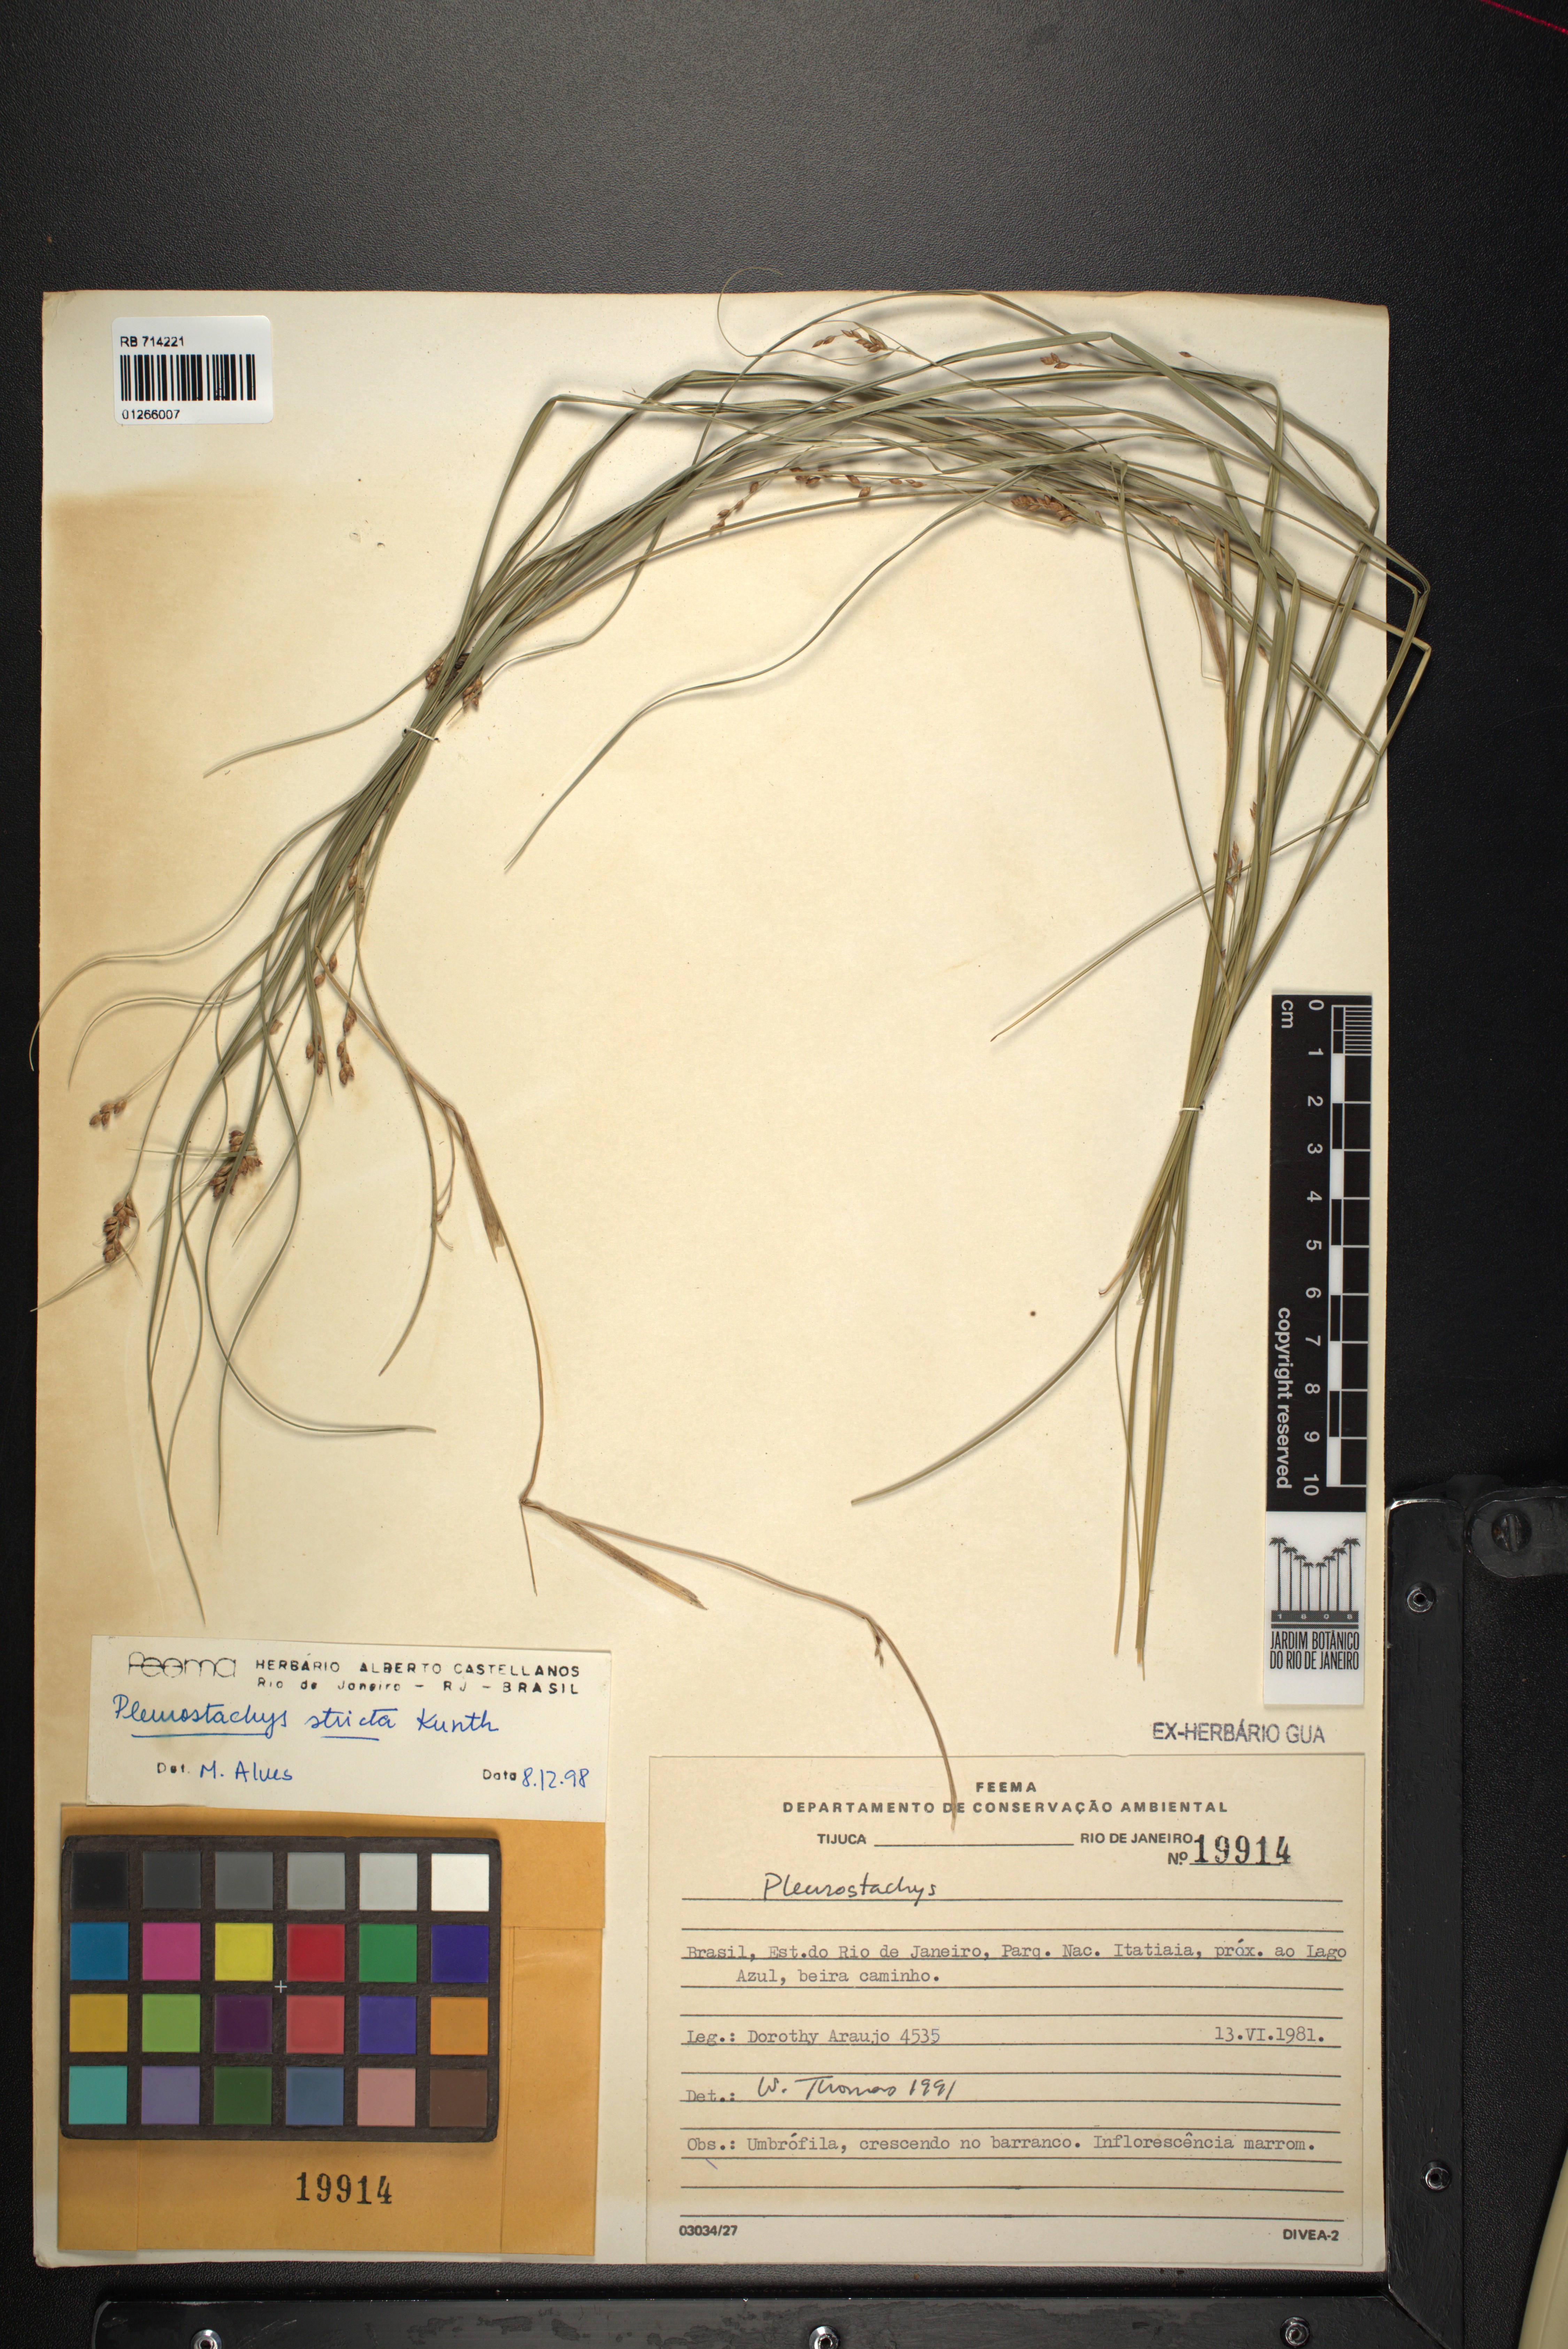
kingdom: Plantae
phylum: Tracheophyta
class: Liliopsida
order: Poales
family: Cyperaceae
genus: Rhynchospora
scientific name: Rhynchospora Pleurostachys muelleri
